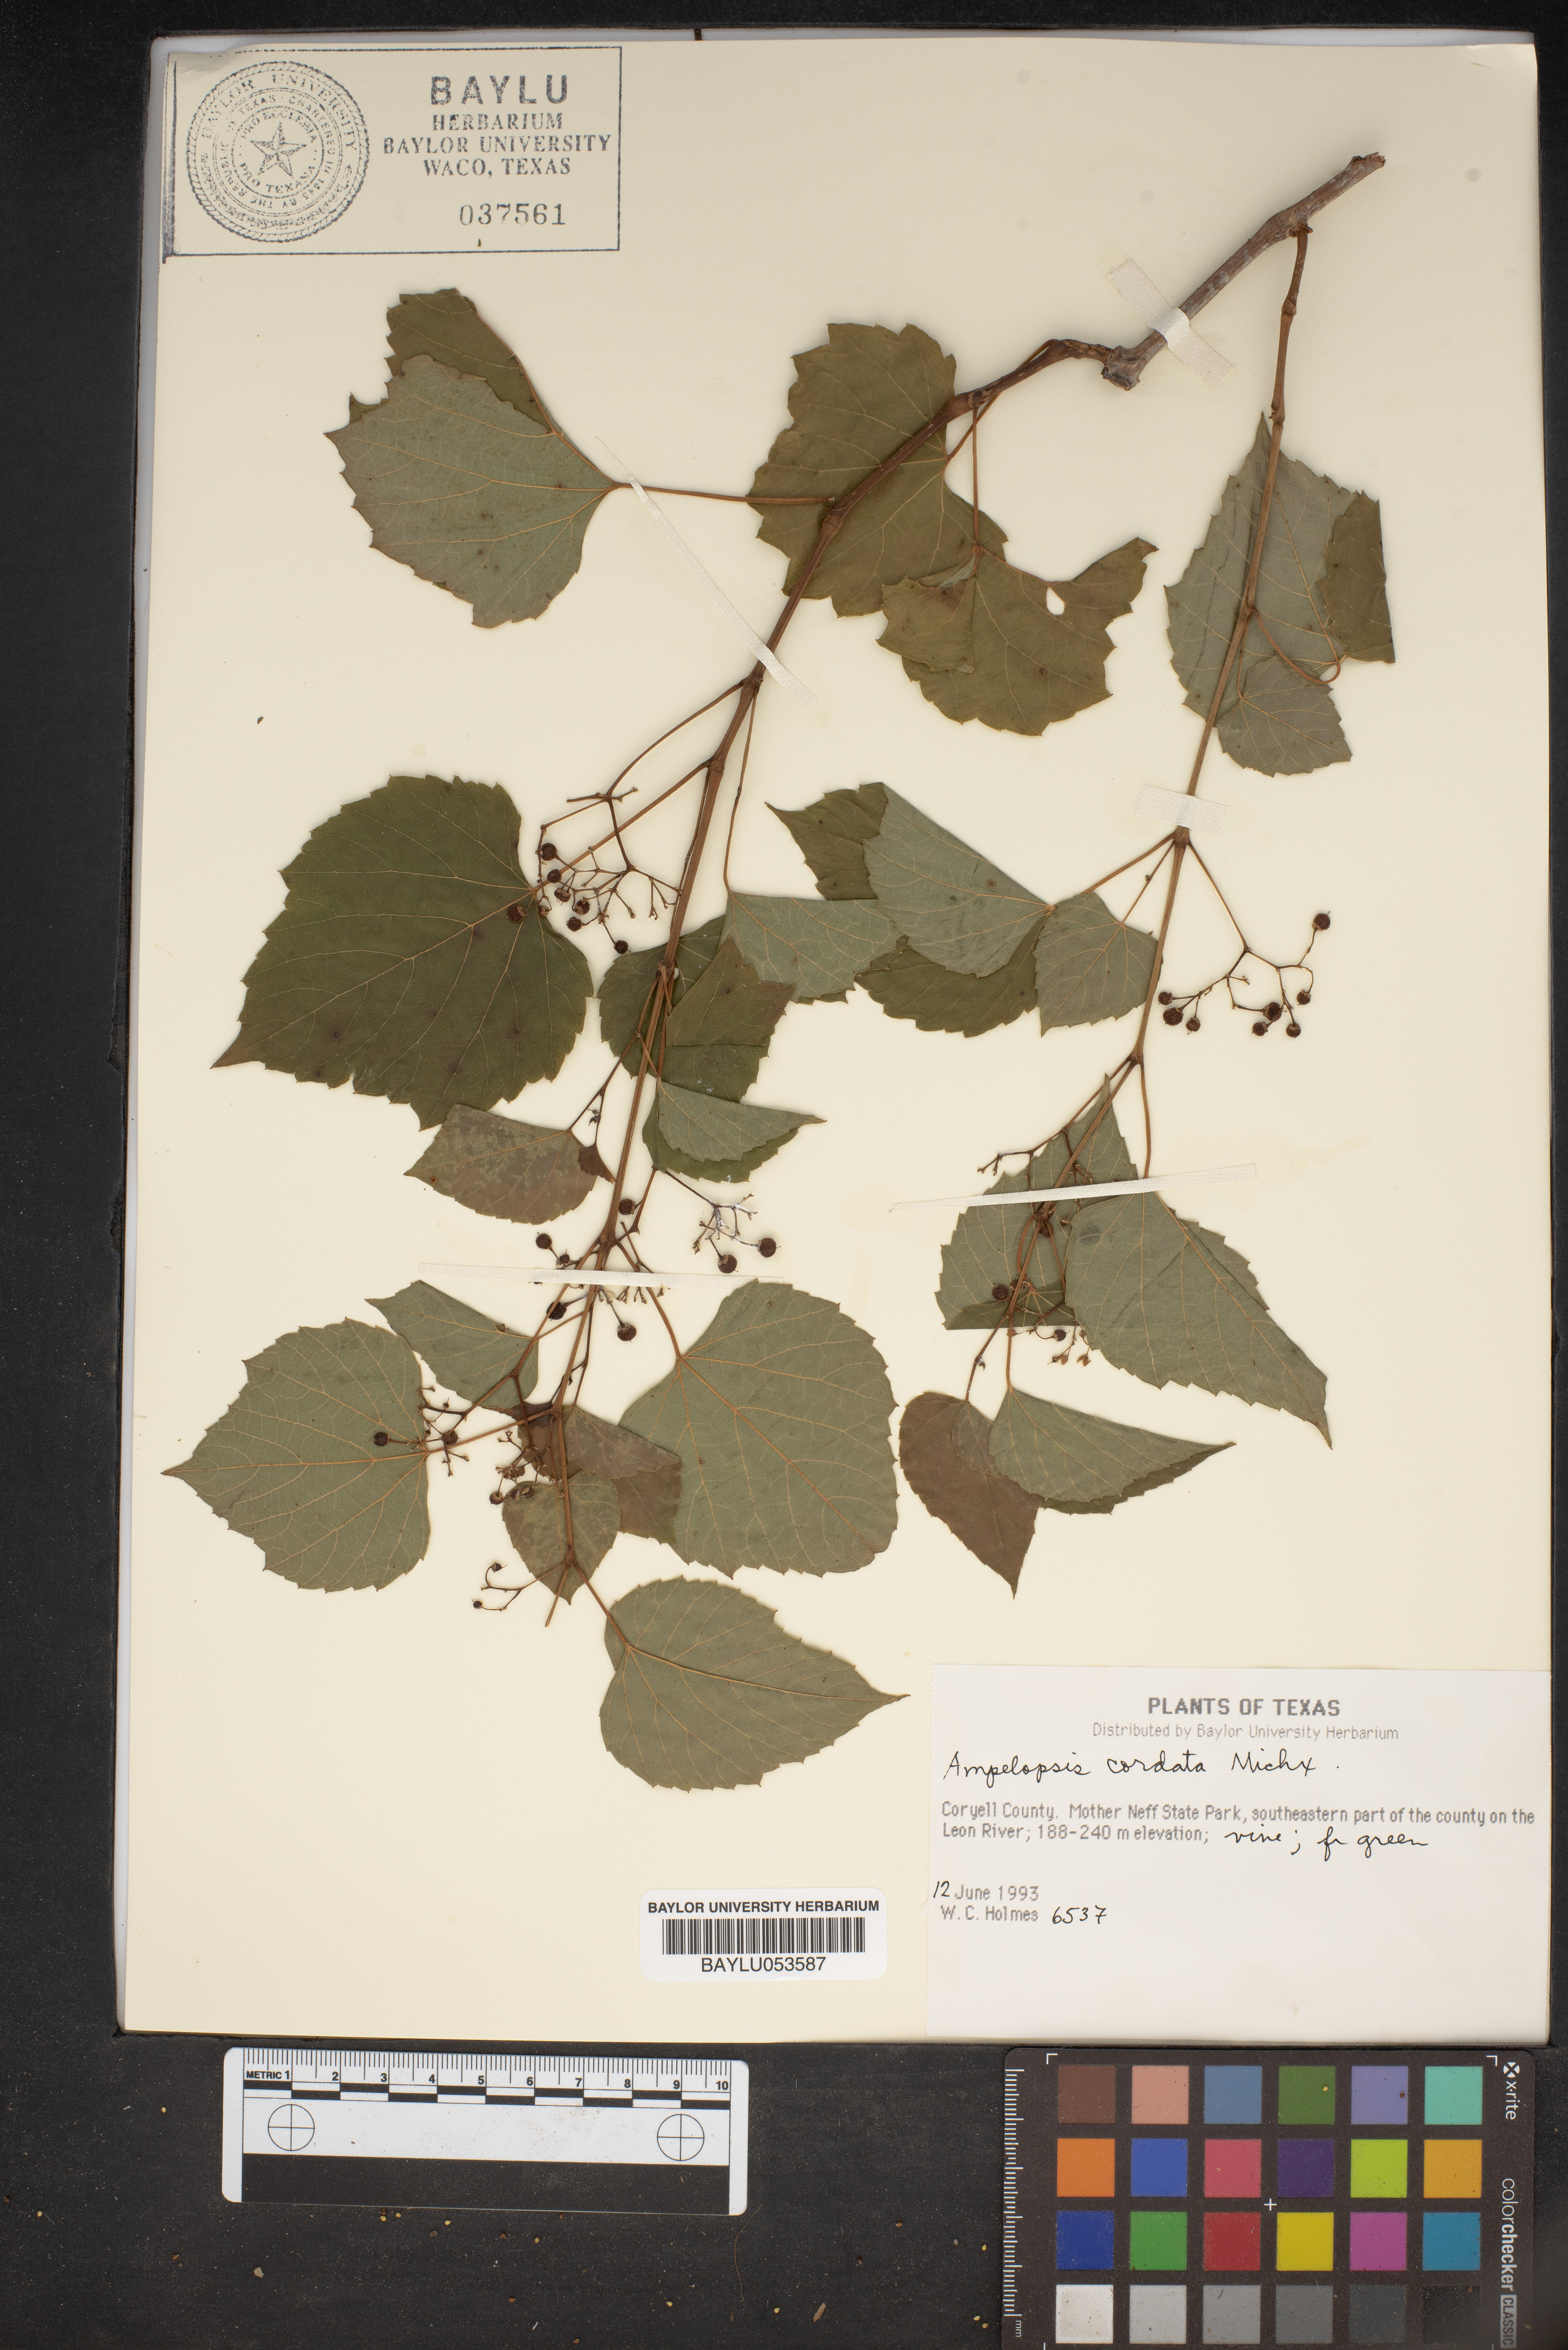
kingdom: Plantae
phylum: Tracheophyta
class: Magnoliopsida
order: Vitales
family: Vitaceae
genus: Ampelopsis
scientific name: Ampelopsis cordata
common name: Heart-leaf ampelopsis
